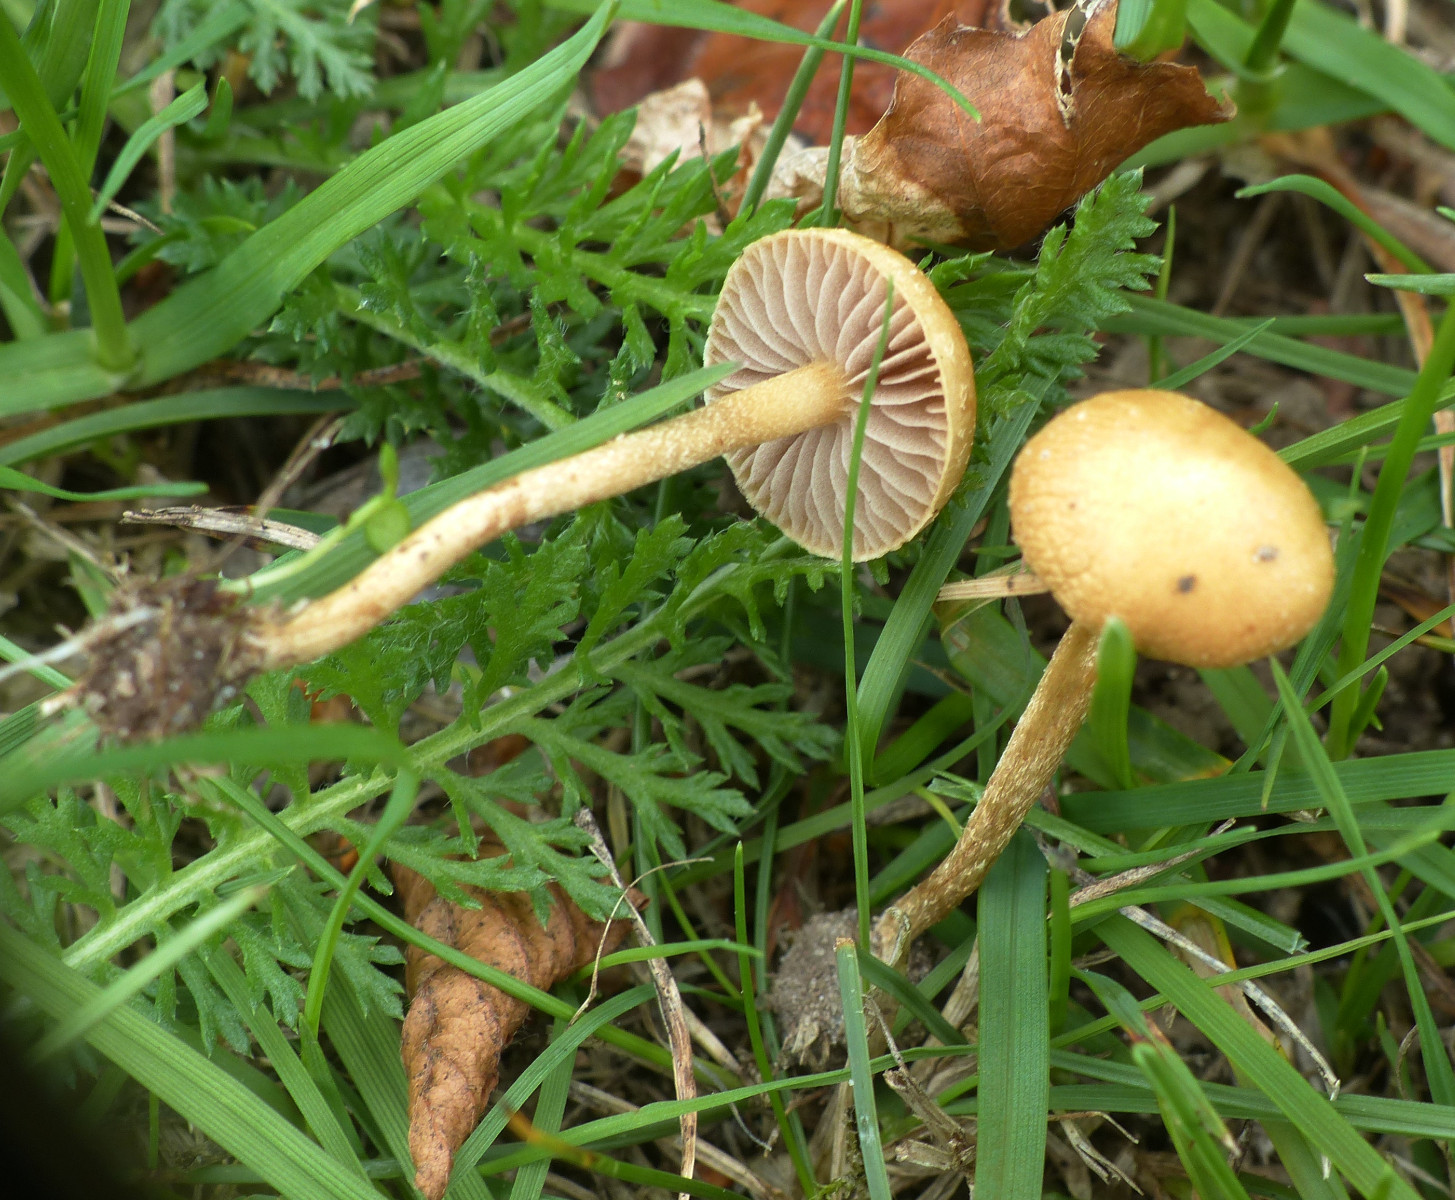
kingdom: Fungi
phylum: Basidiomycota
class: Agaricomycetes
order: Agaricales
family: Strophariaceae
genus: Agrocybe
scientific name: Agrocybe pediades
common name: almindelig agerhat
